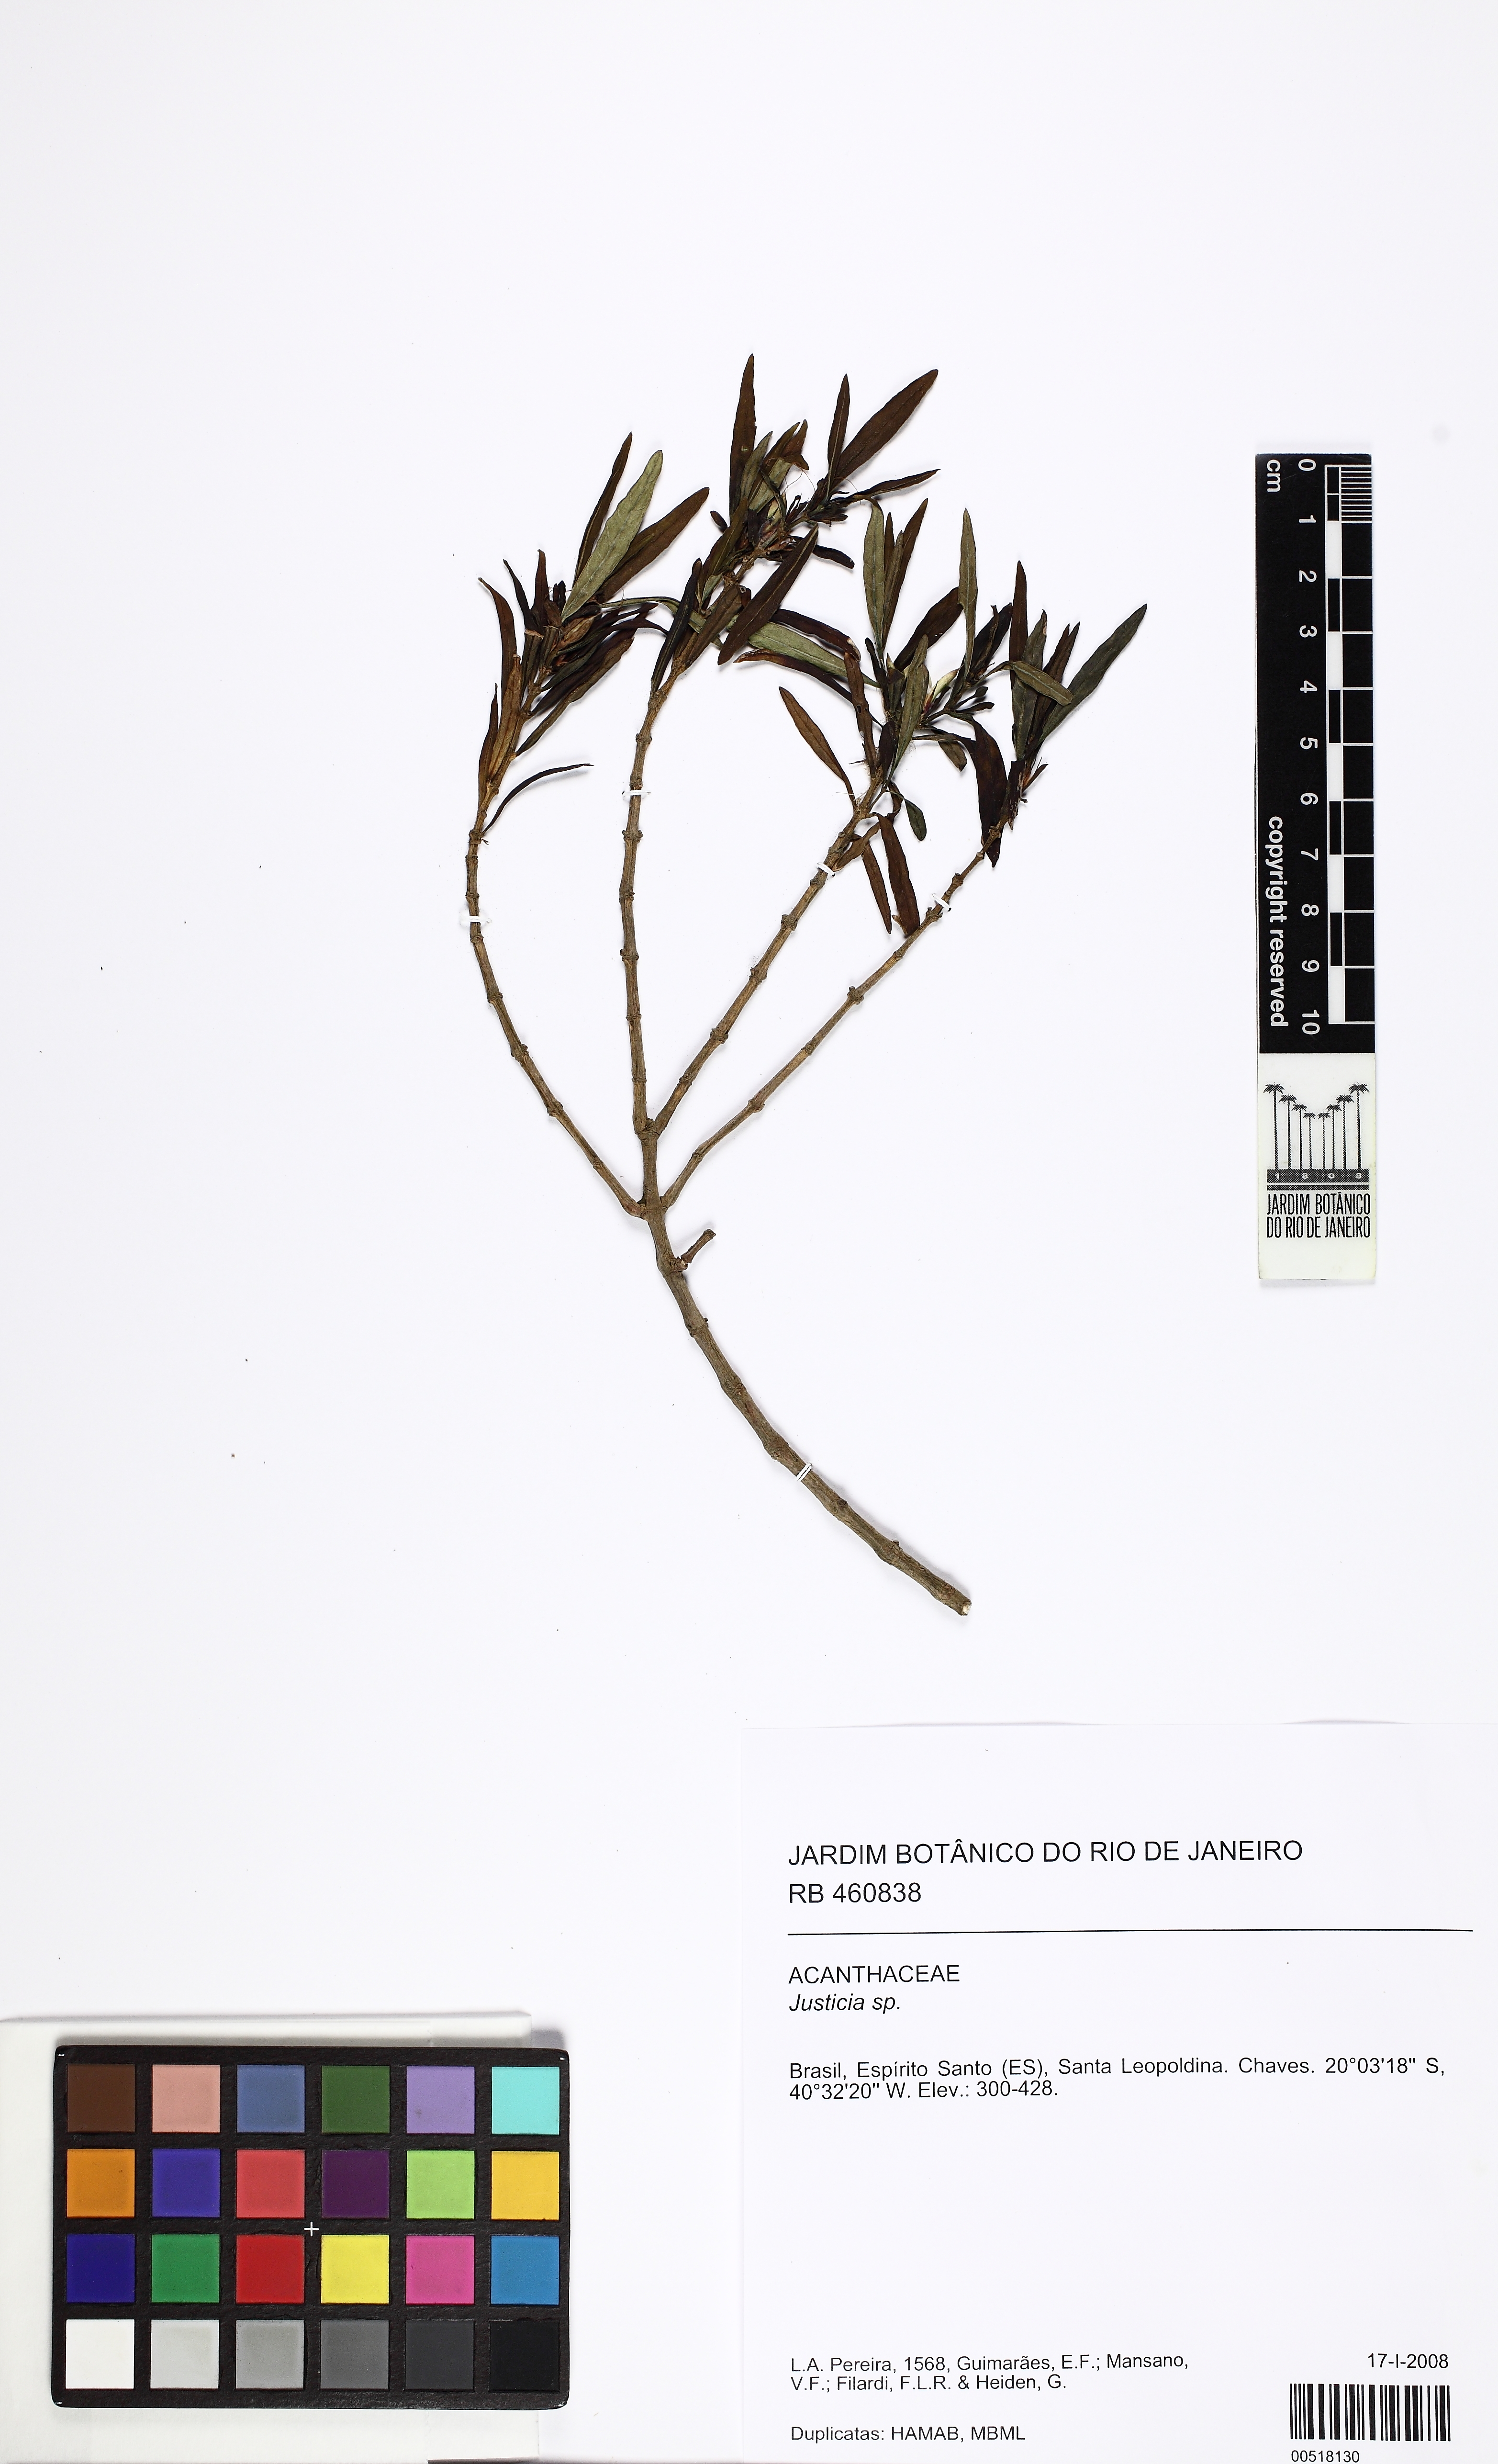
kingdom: Plantae
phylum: Tracheophyta
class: Magnoliopsida
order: Lamiales
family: Acanthaceae
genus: Justicia
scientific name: Justicia
